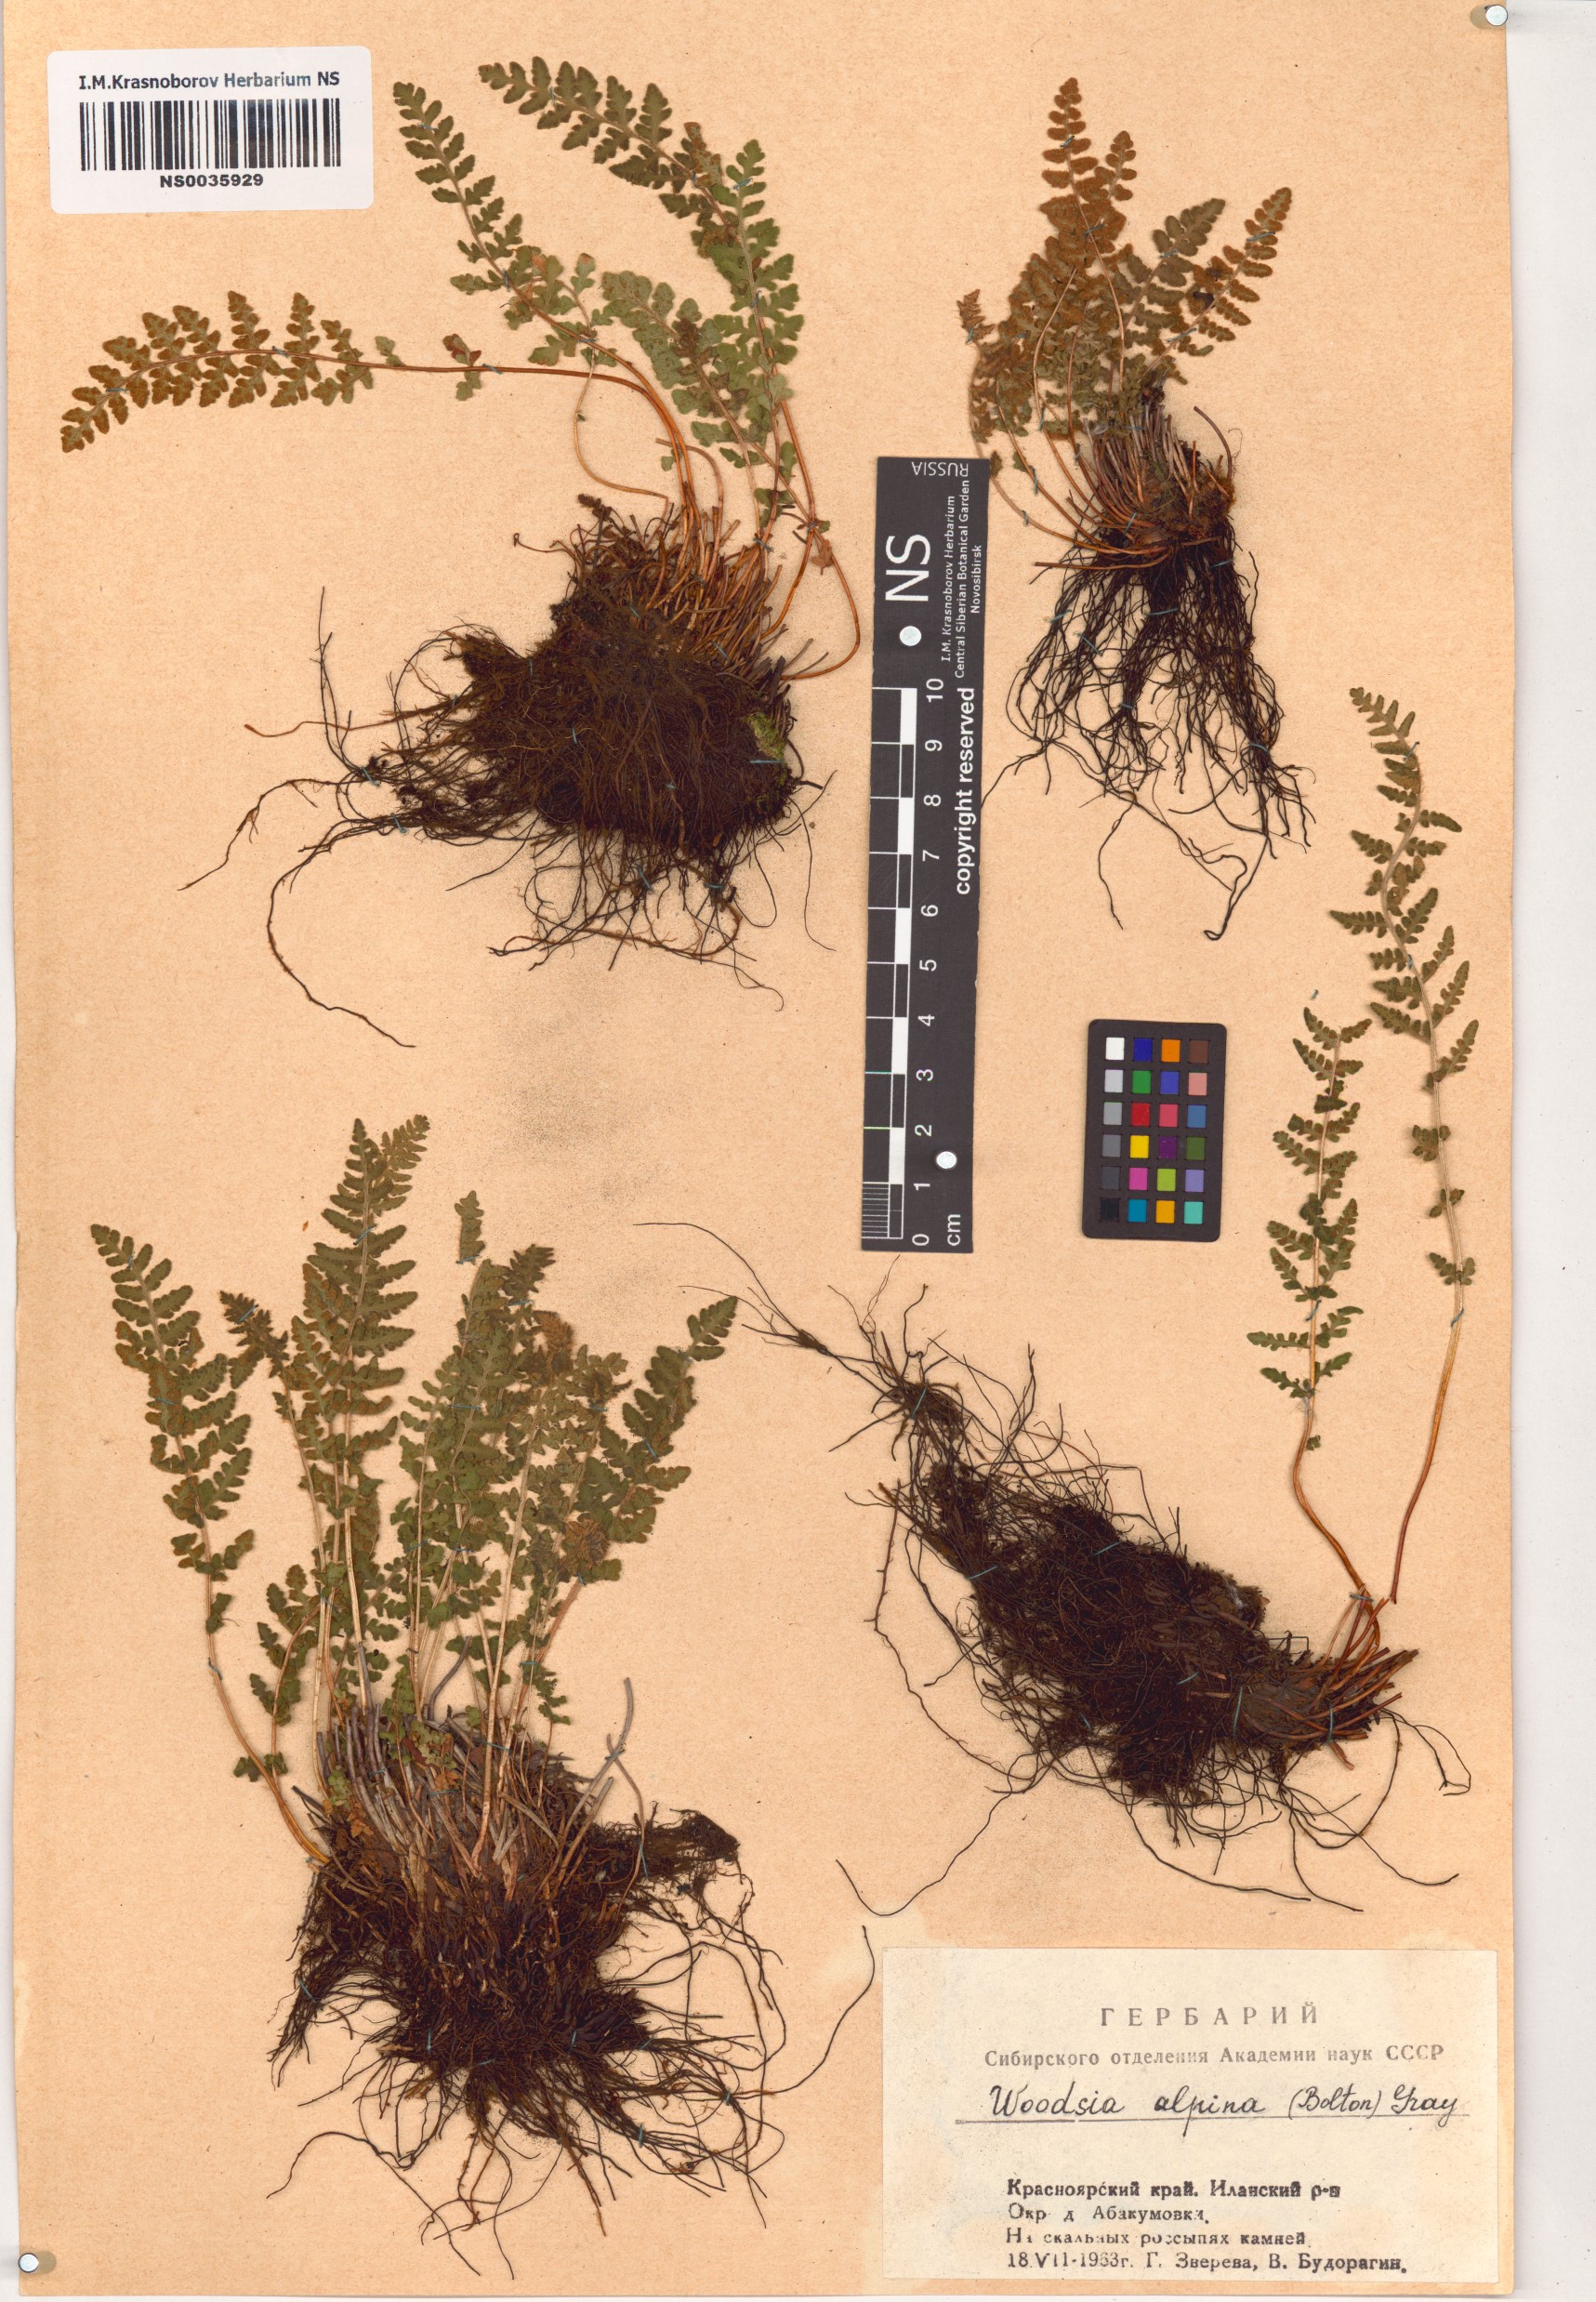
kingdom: Plantae
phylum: Tracheophyta
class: Polypodiopsida
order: Polypodiales
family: Woodsiaceae
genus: Woodsia
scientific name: Woodsia alpina
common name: Alpine woodsia
